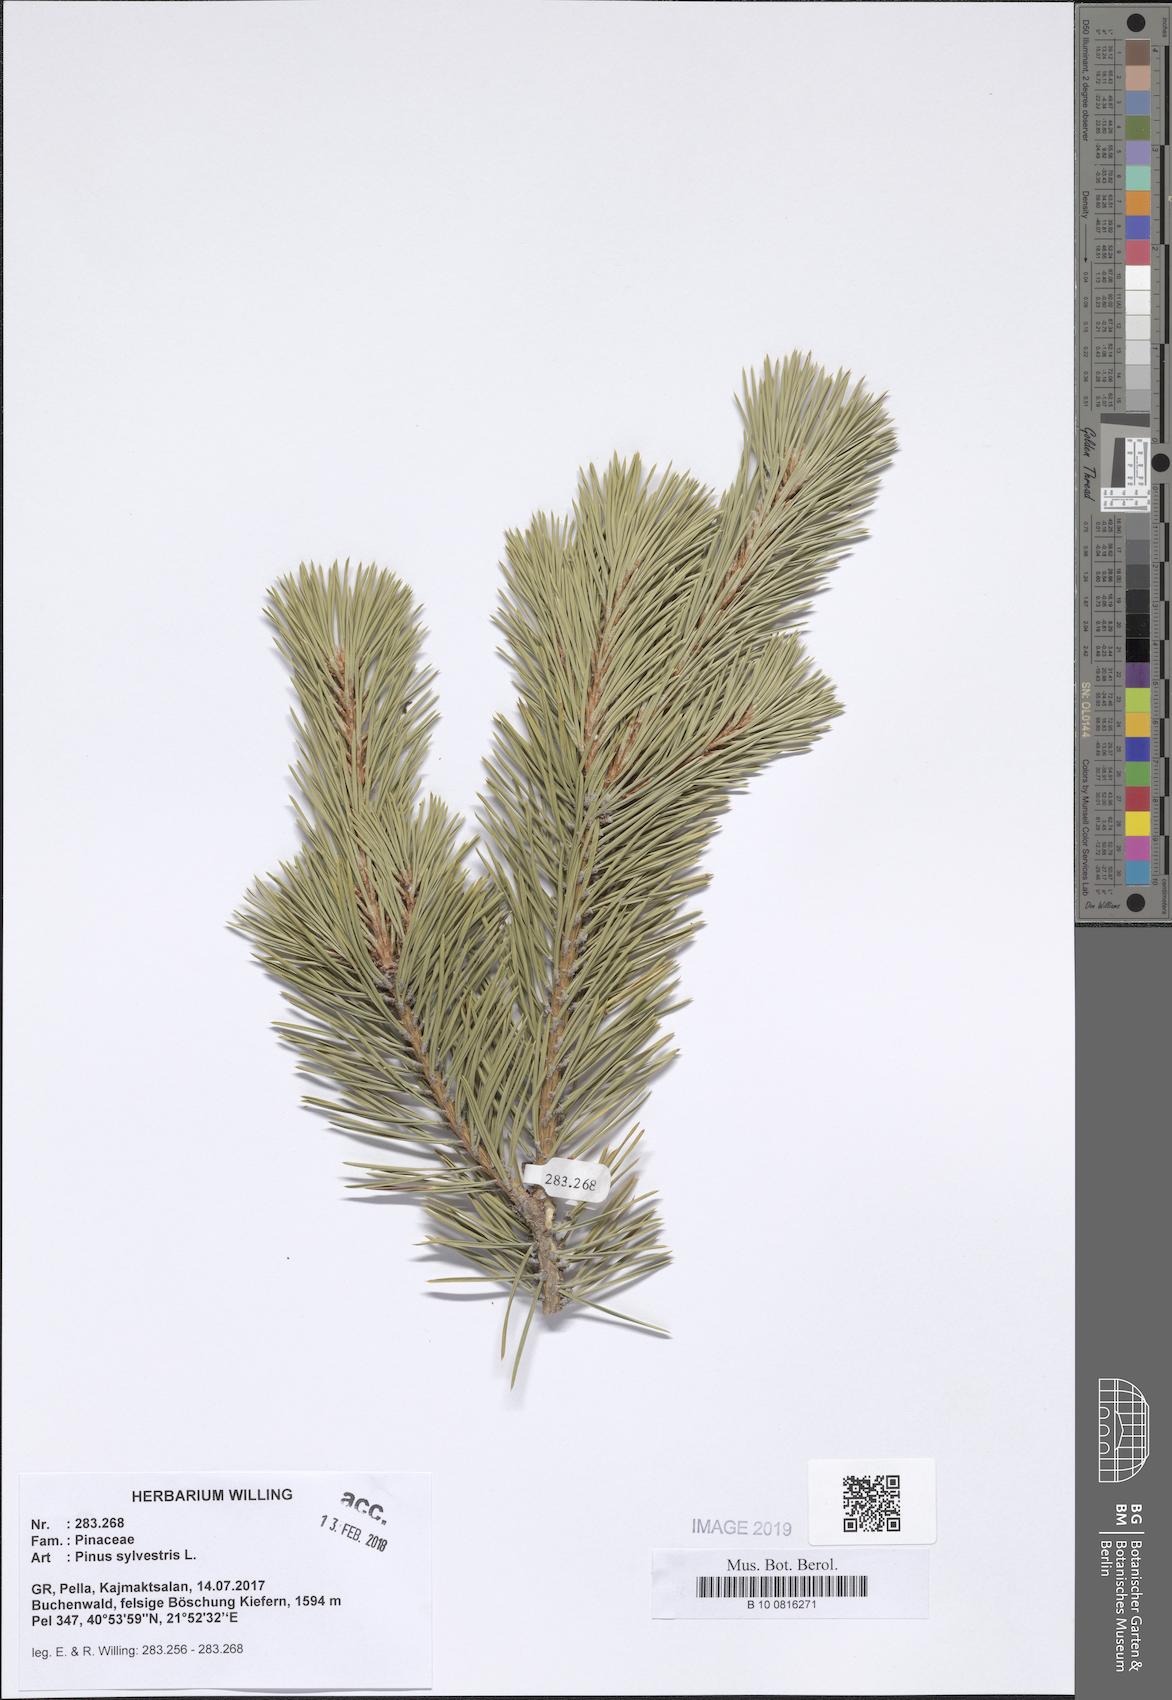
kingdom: Plantae
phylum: Tracheophyta
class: Pinopsida
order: Pinales
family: Pinaceae
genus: Pinus
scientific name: Pinus sylvestris
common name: Scots pine
